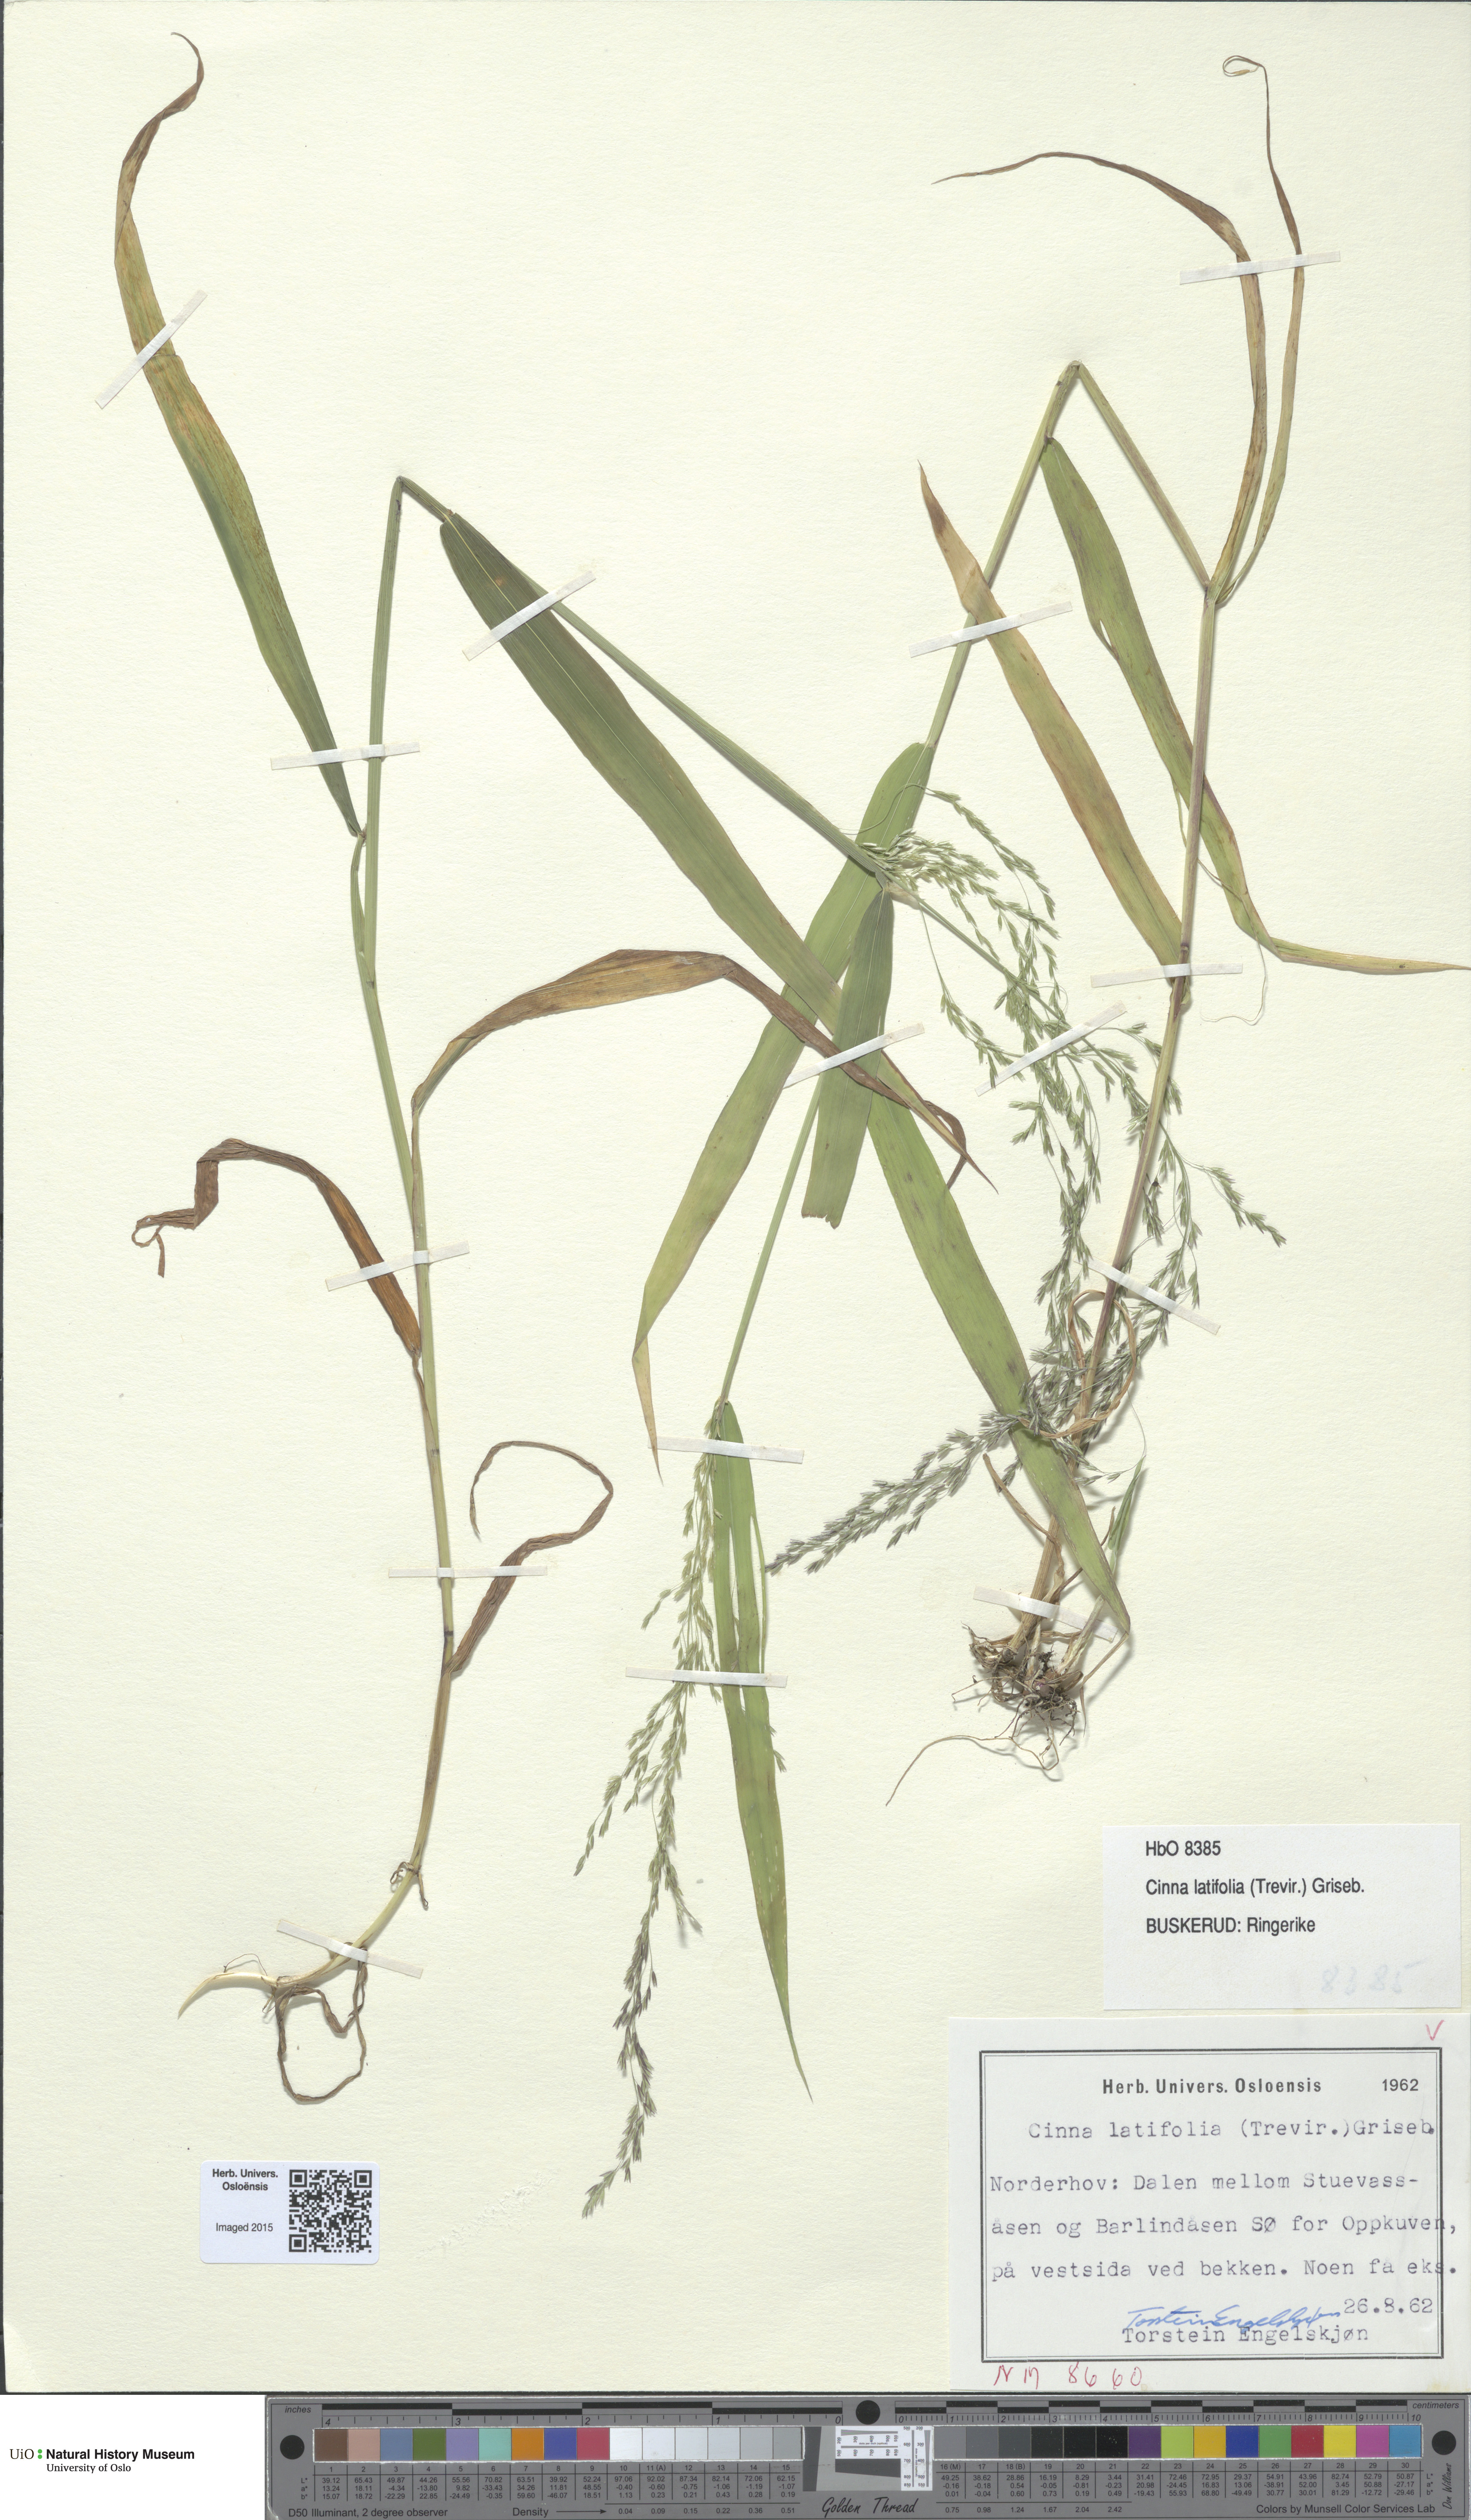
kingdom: Plantae
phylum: Tracheophyta
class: Liliopsida
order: Poales
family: Poaceae
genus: Cinna
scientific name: Cinna latifolia
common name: Drooping woodreed
